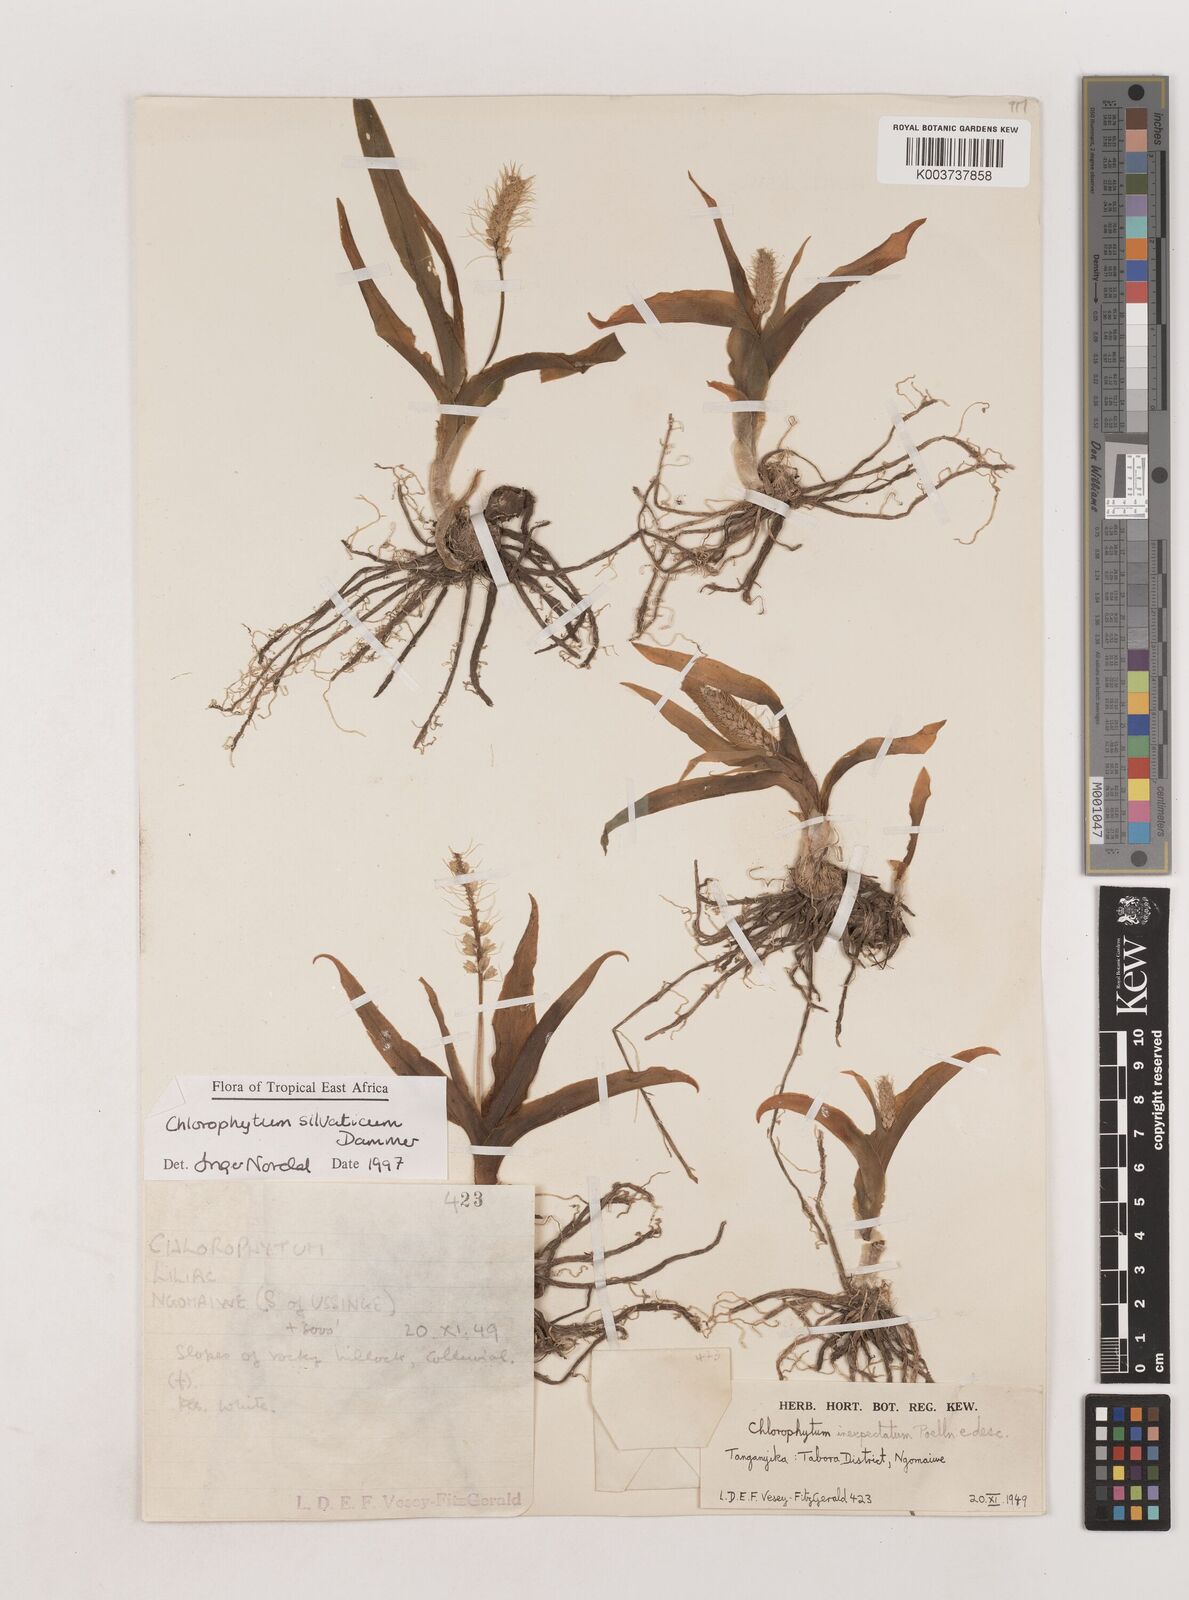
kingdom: Plantae
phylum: Tracheophyta
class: Liliopsida
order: Asparagales
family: Asparagaceae
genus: Chlorophytum
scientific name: Chlorophytum africanum
